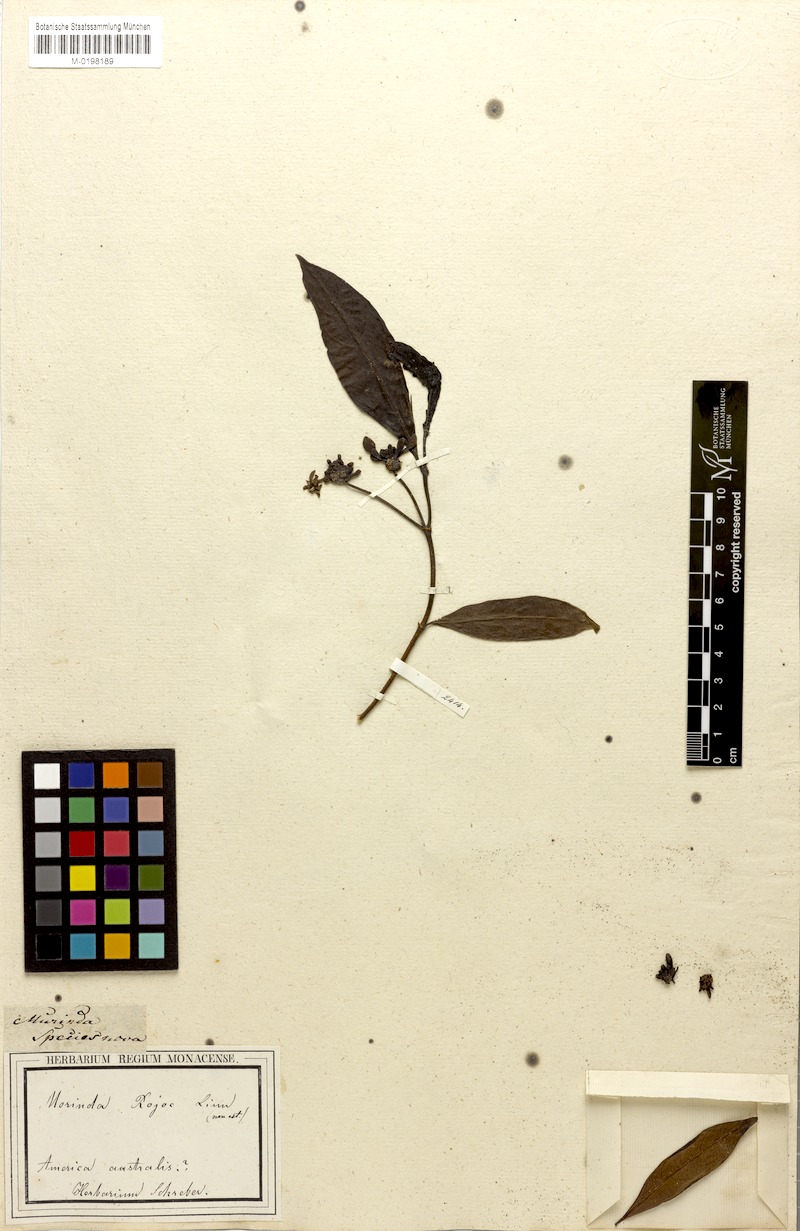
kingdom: Plantae
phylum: Tracheophyta
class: Magnoliopsida
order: Gentianales
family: Rubiaceae
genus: Morinda
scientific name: Morinda
